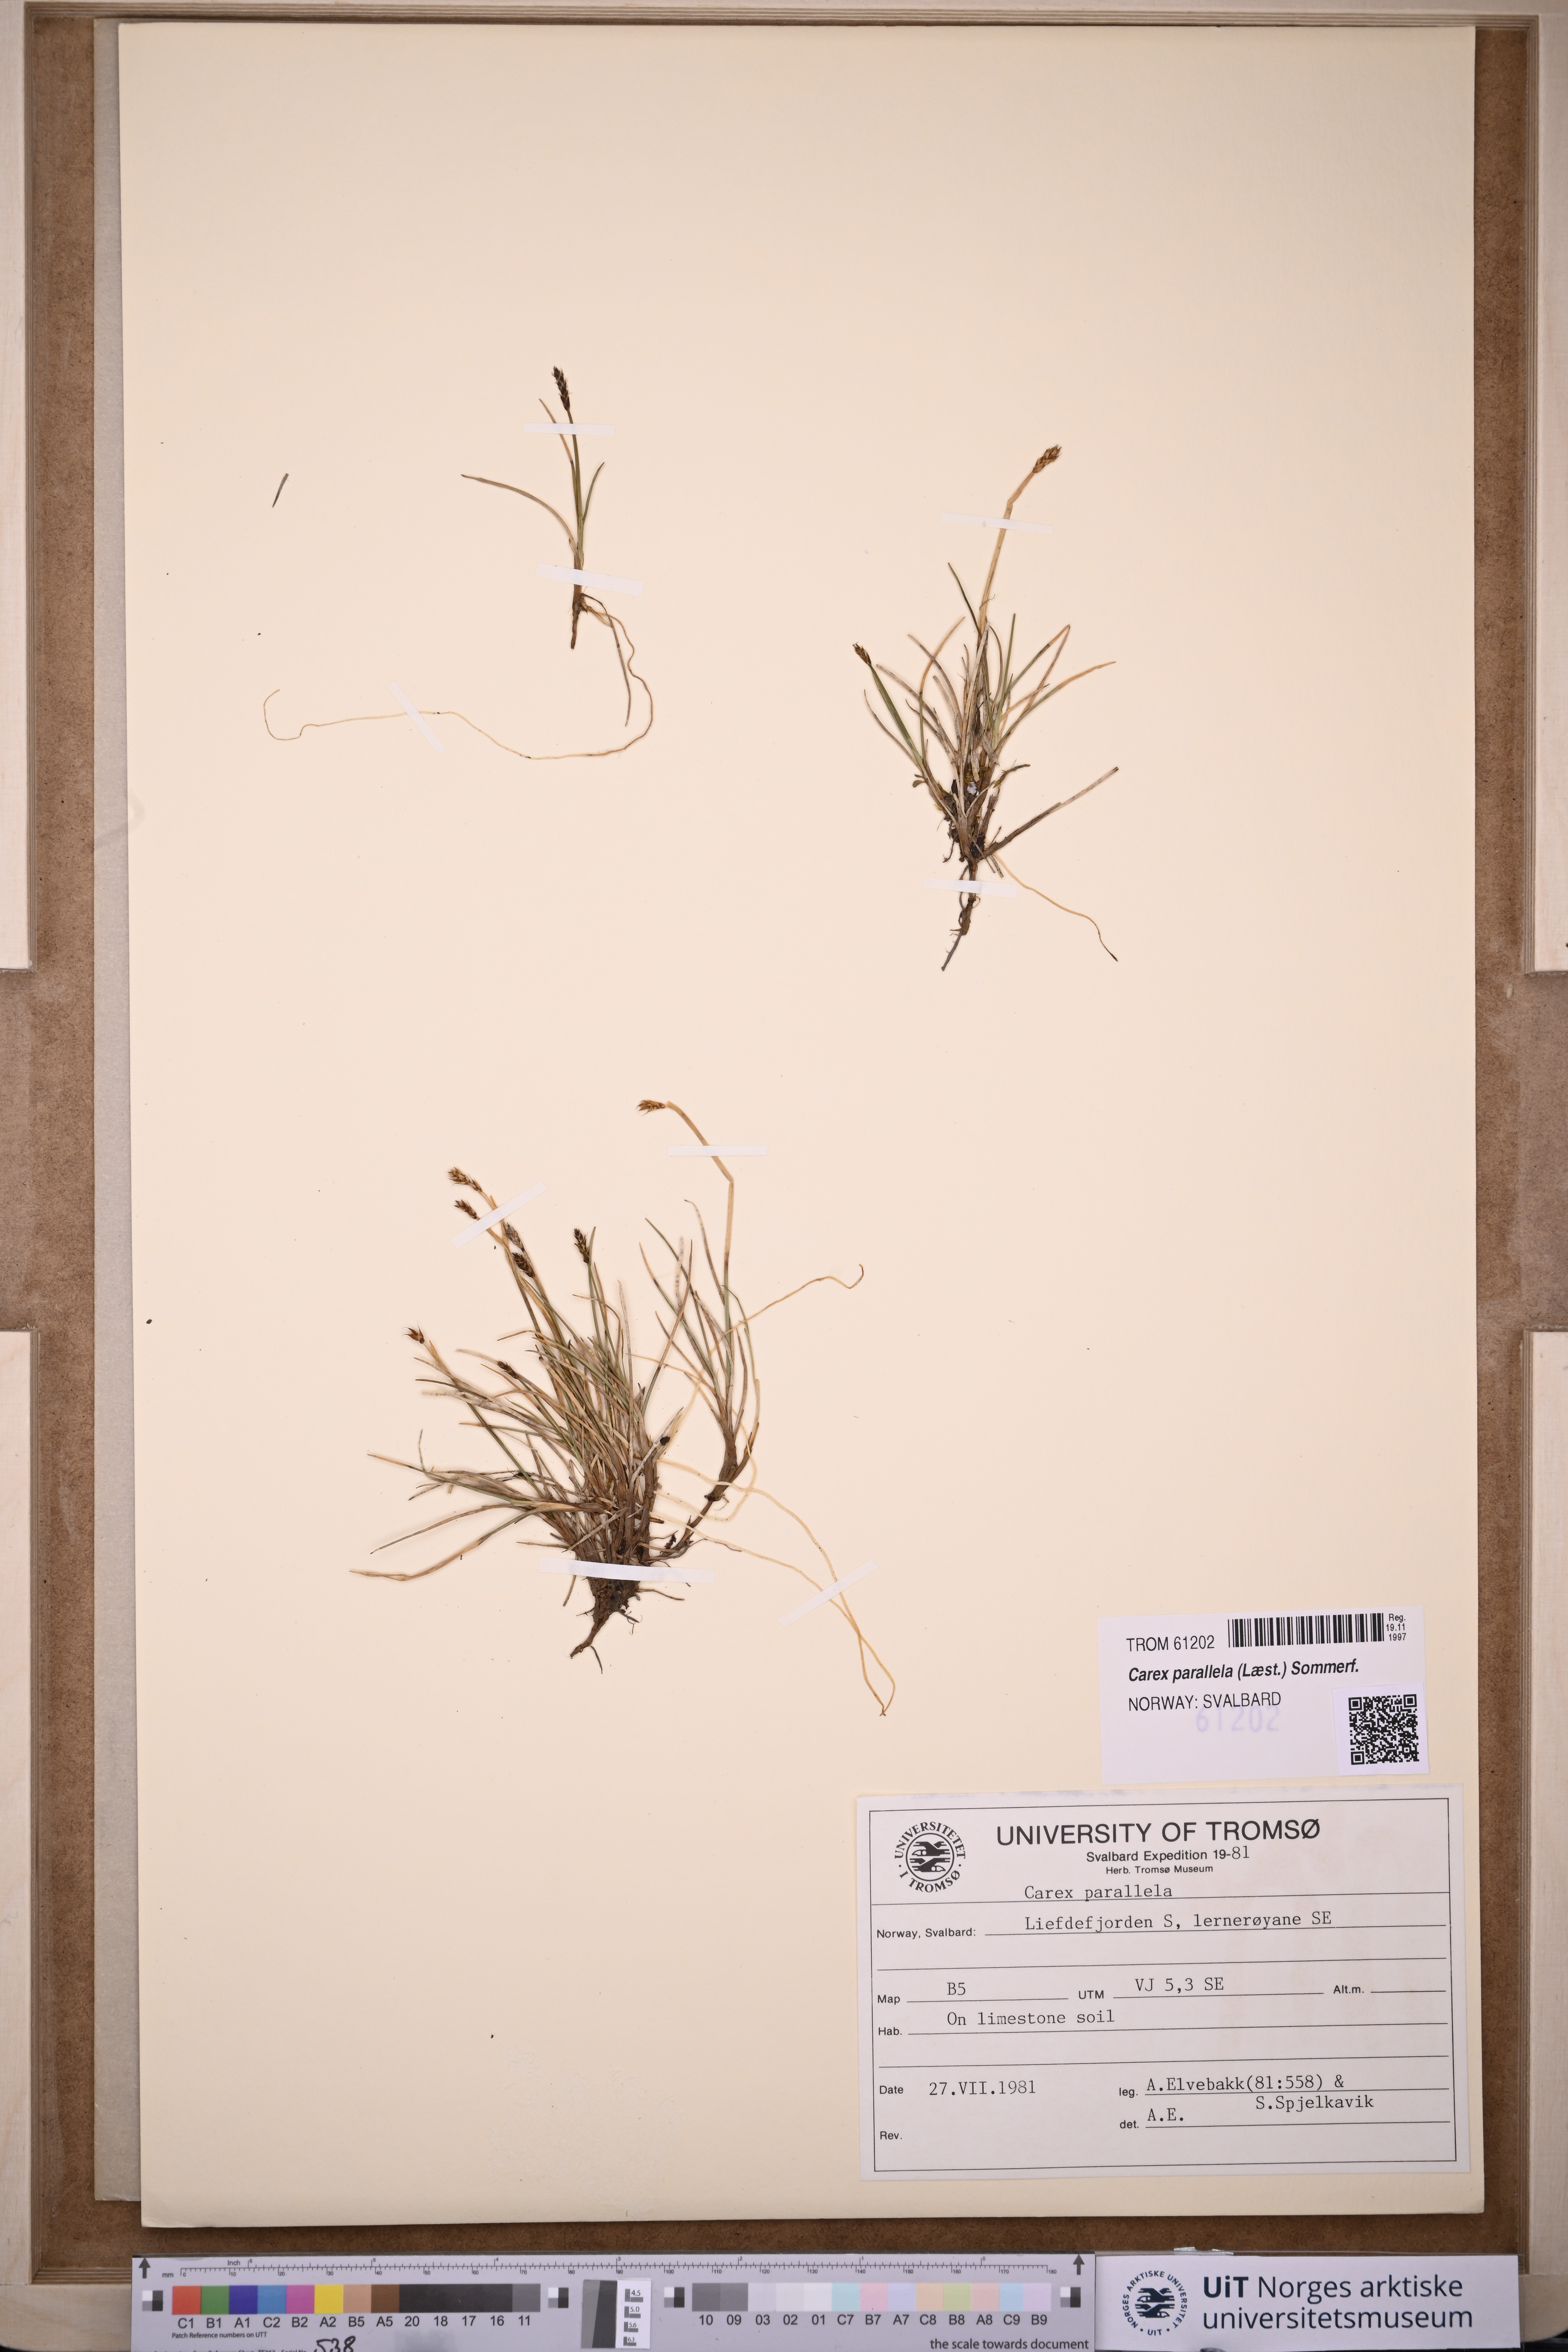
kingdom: Plantae
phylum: Tracheophyta
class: Liliopsida
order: Poales
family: Cyperaceae
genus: Carex
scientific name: Carex parallela
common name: Parallel sedge
